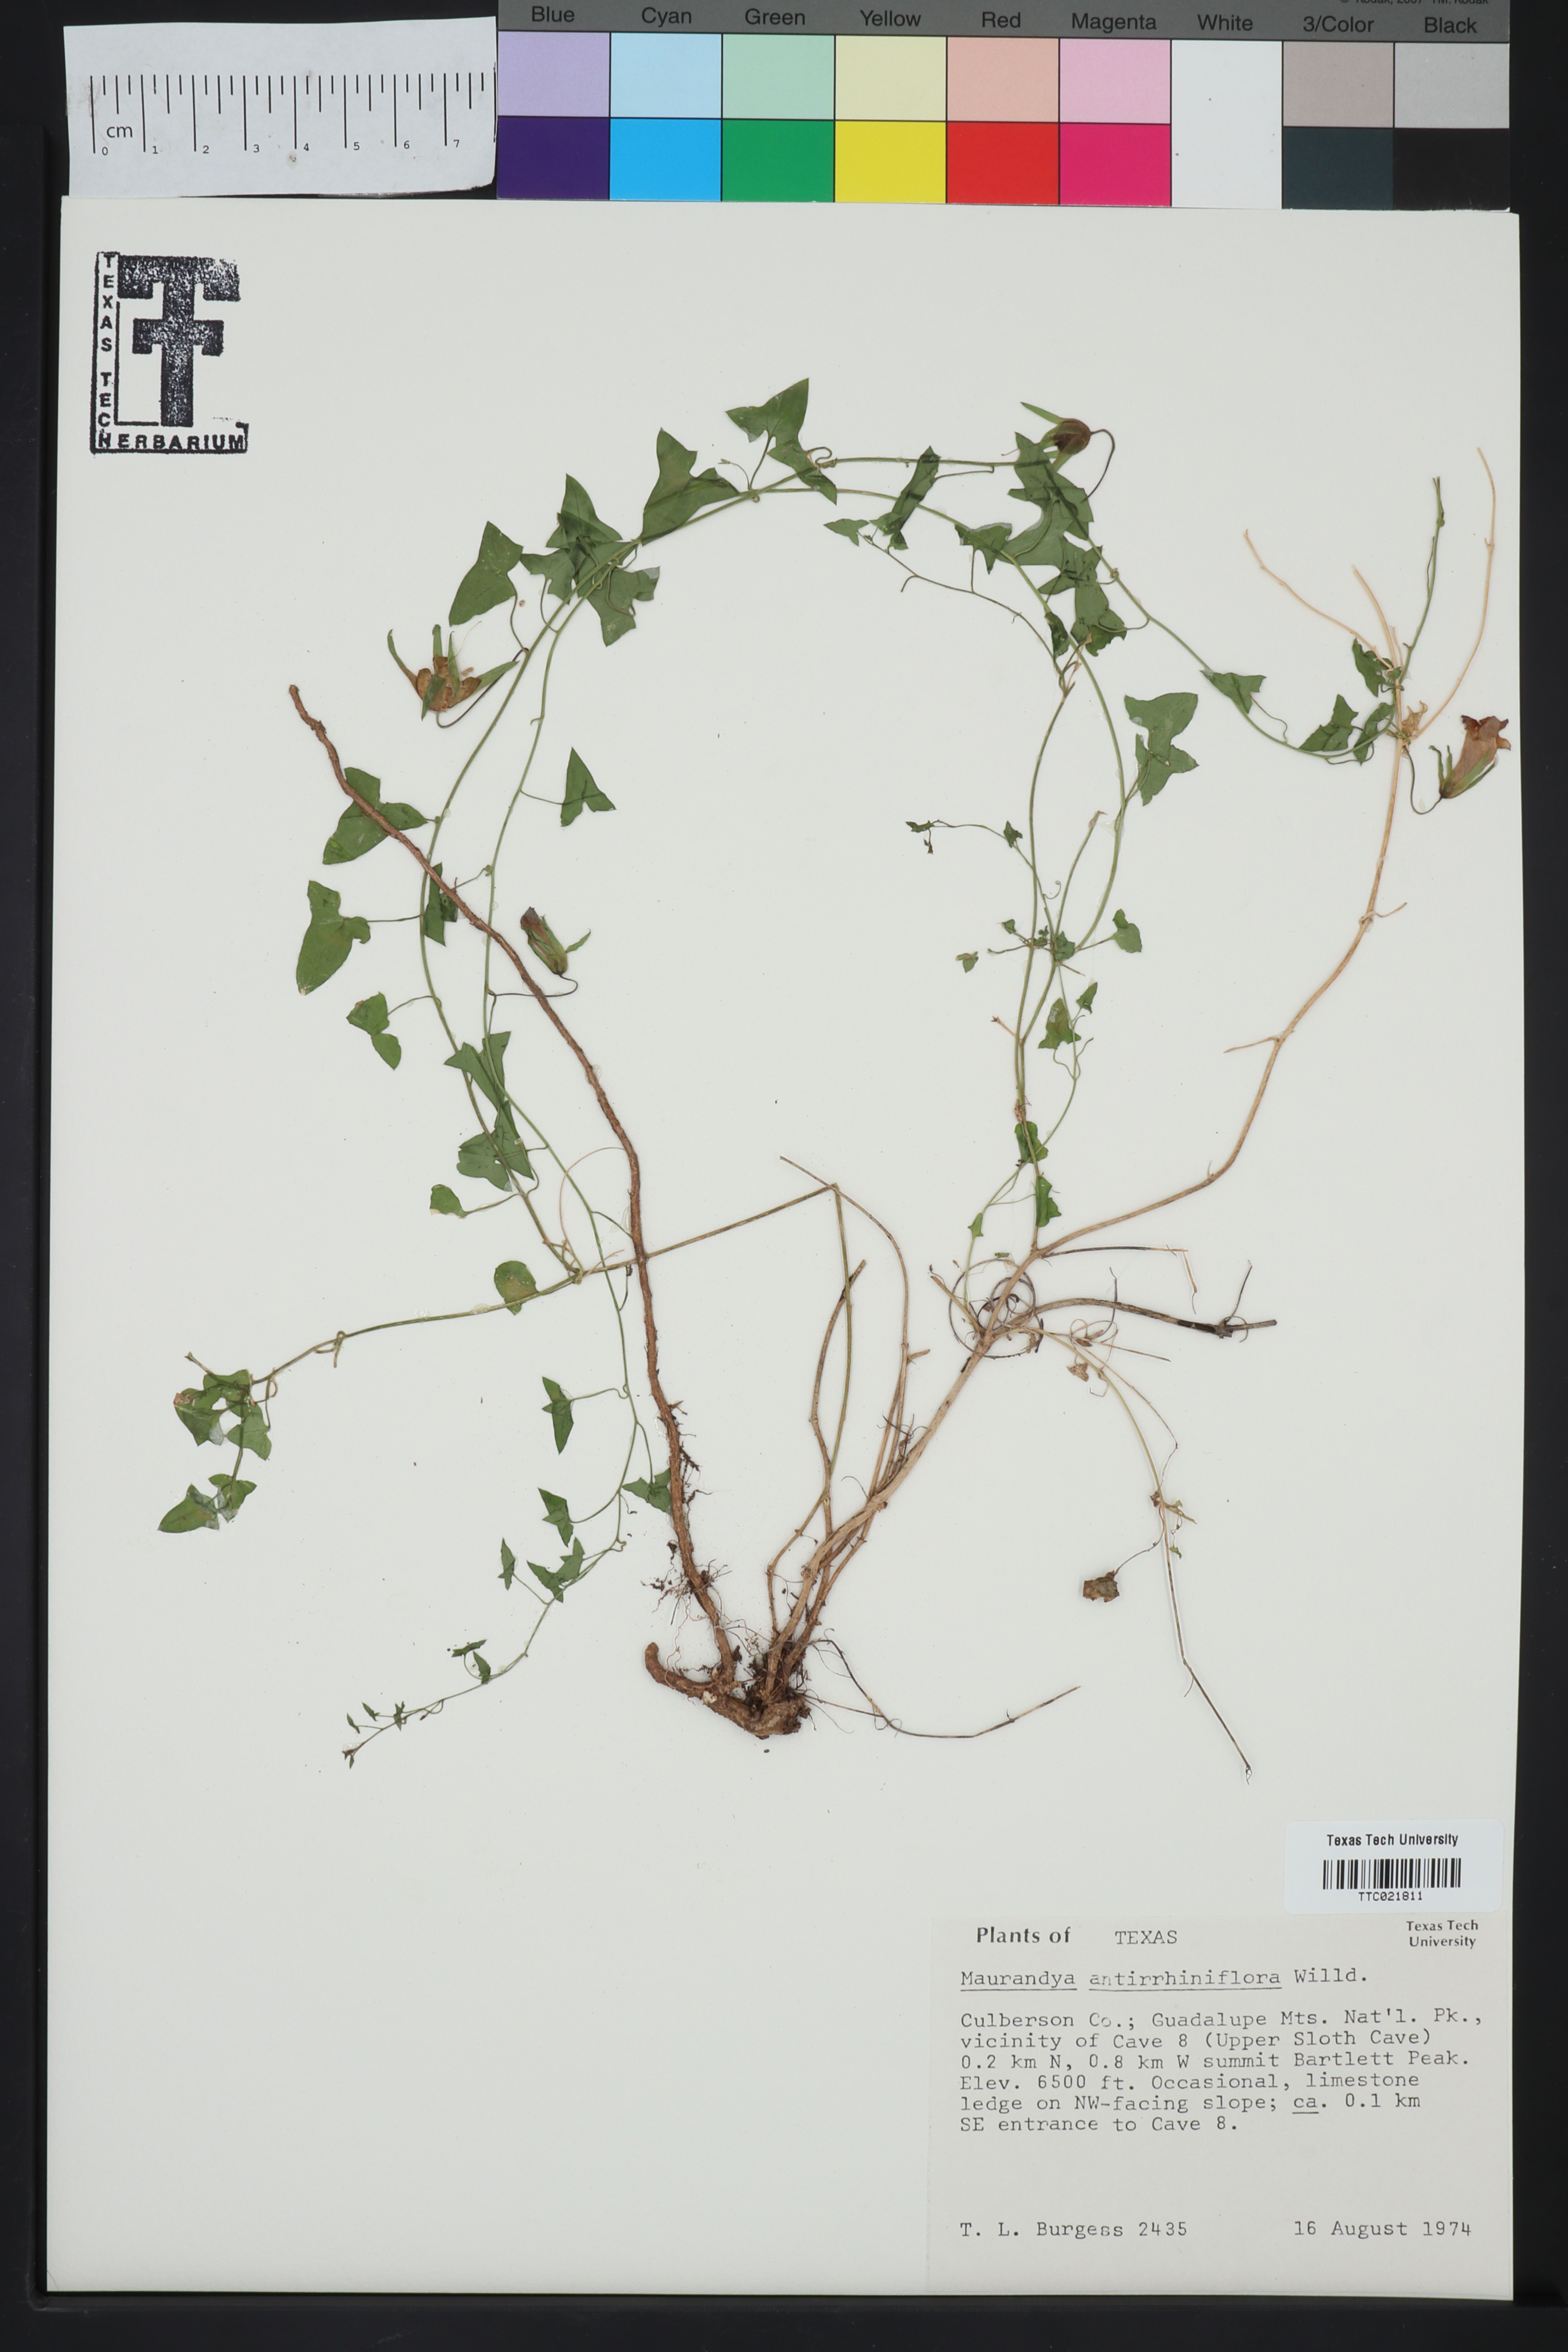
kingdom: Plantae
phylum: Tracheophyta
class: Magnoliopsida
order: Lamiales
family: Plantaginaceae
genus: Maurandella
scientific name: Maurandella antirrhiniflora
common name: Violet twining-snapdragon
